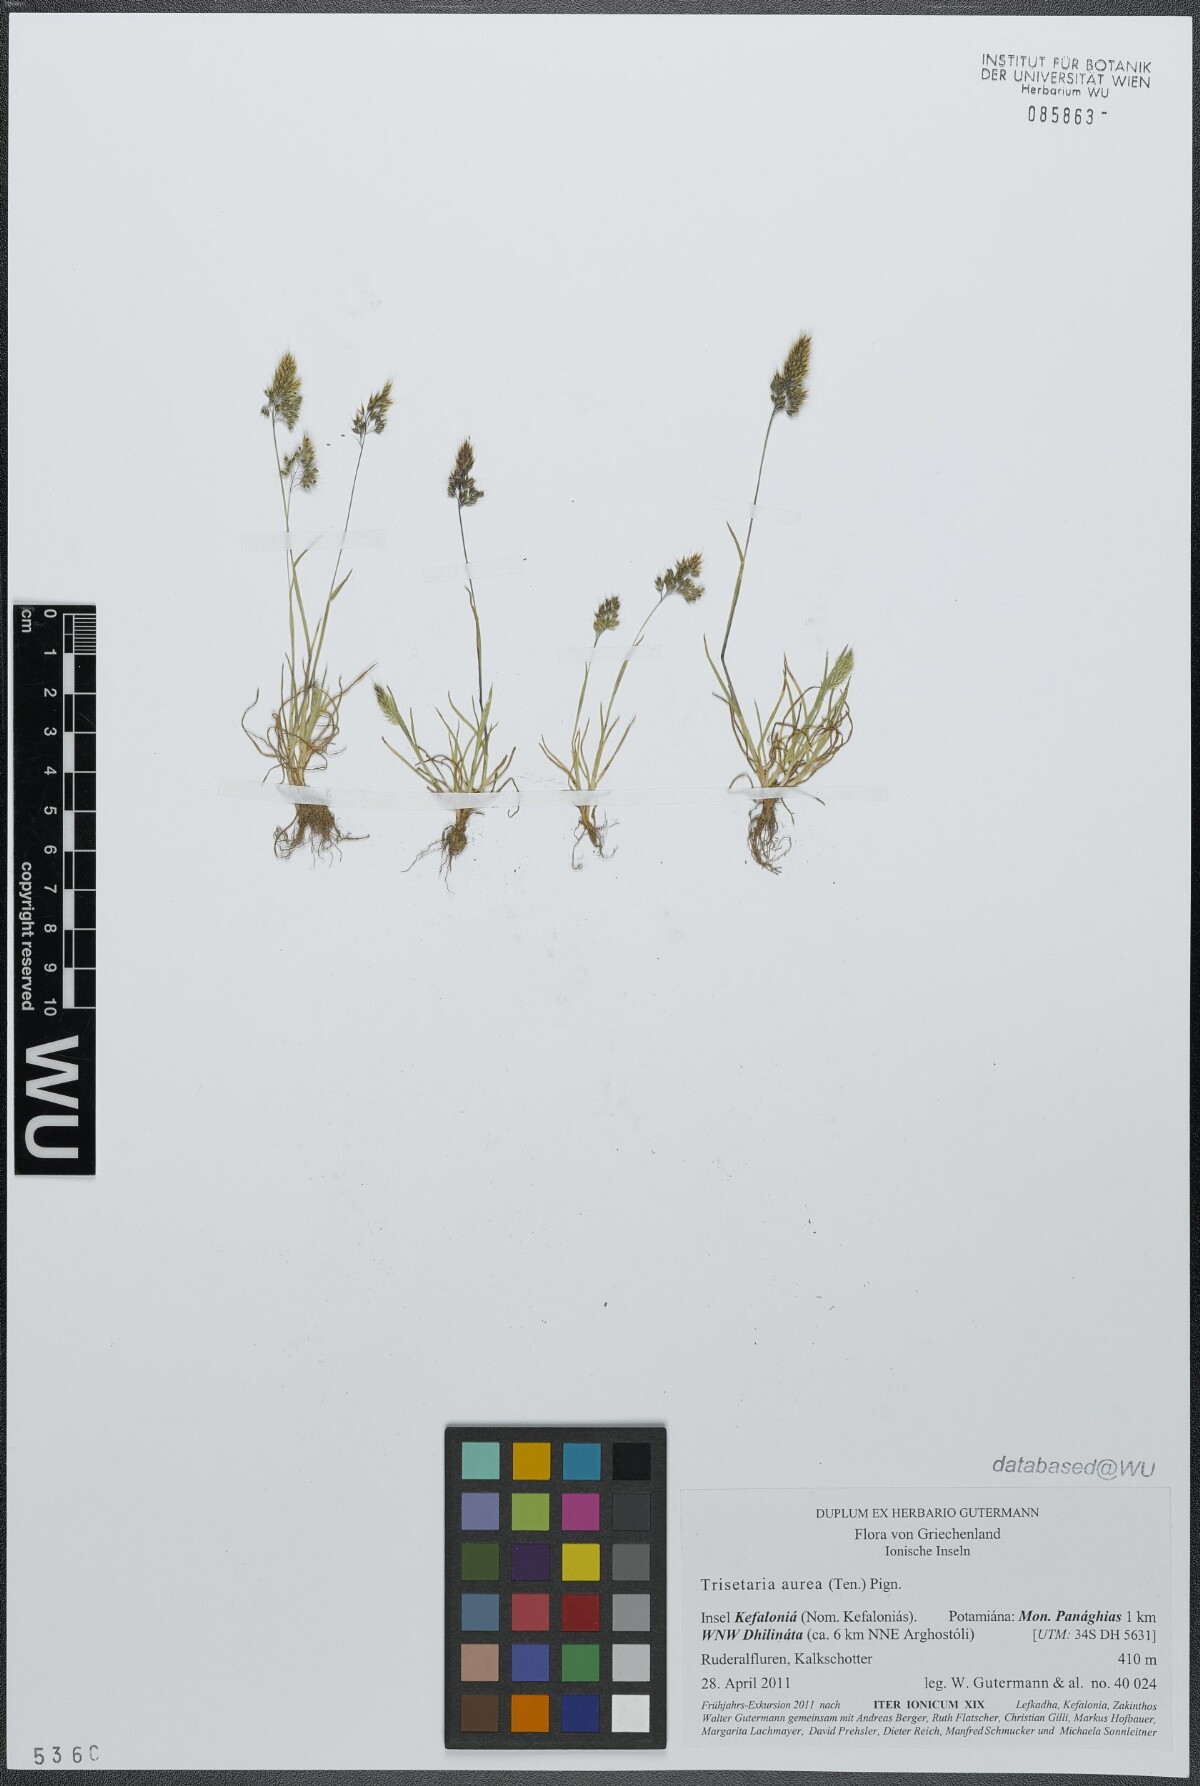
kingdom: Plantae
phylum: Tracheophyta
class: Liliopsida
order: Poales
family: Poaceae
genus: Trisetaria
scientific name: Trisetaria aurea
